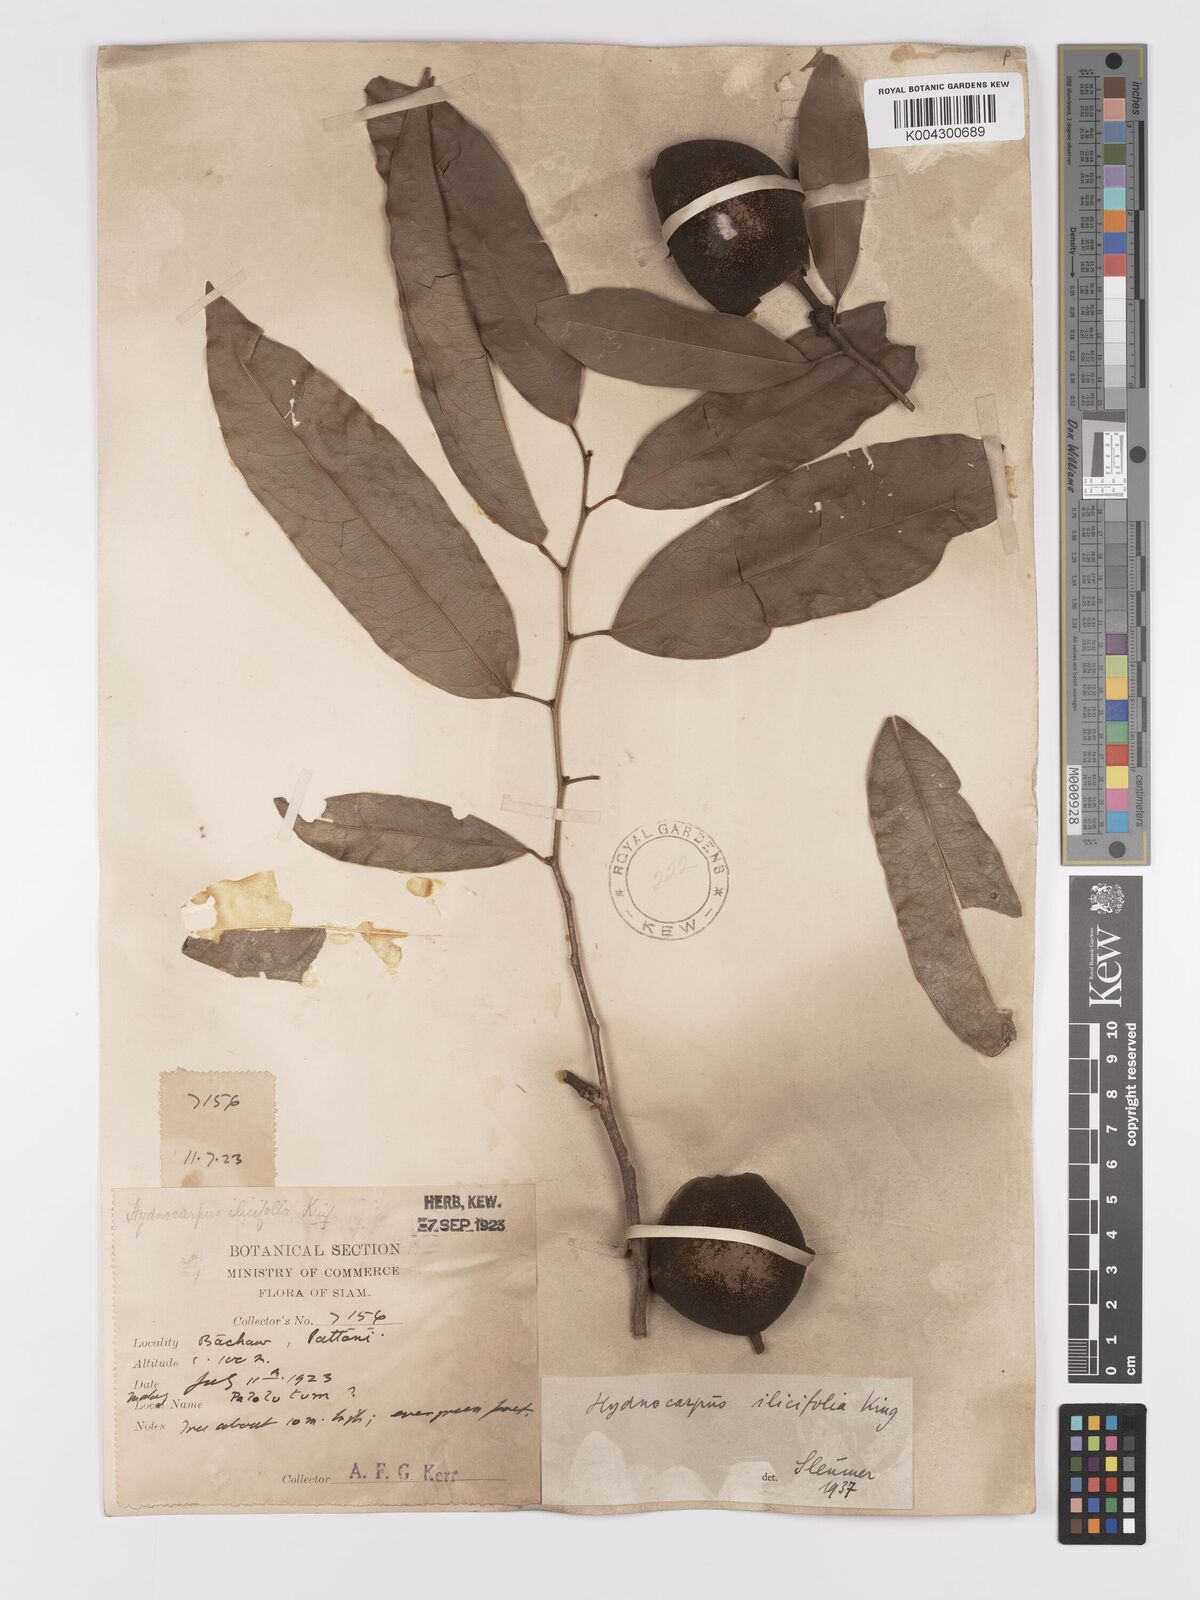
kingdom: Plantae
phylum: Tracheophyta
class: Magnoliopsida
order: Malpighiales
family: Achariaceae
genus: Hydnocarpus
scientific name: Hydnocarpus ilicifolius
